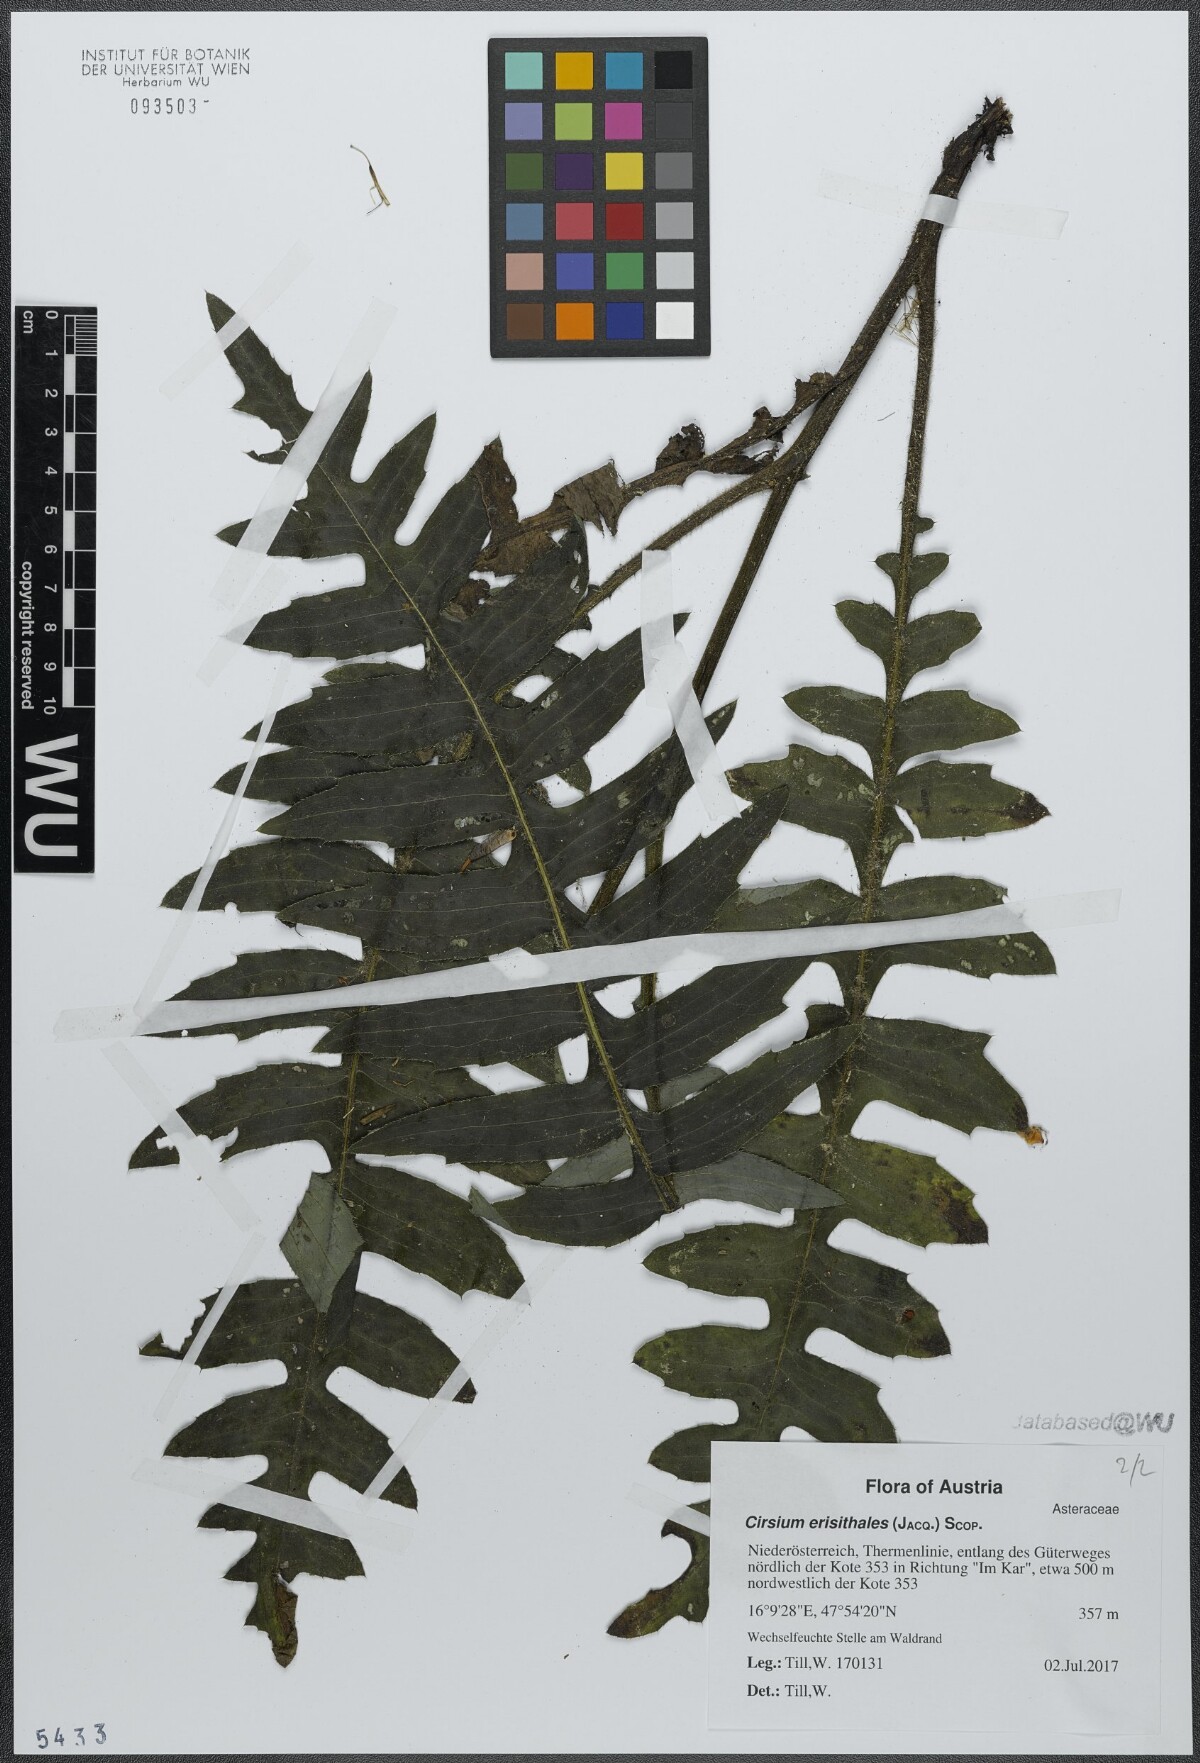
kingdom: Plantae
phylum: Tracheophyta
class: Magnoliopsida
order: Asterales
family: Asteraceae
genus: Cirsium
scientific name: Cirsium erisithales
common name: Yellow thistle
